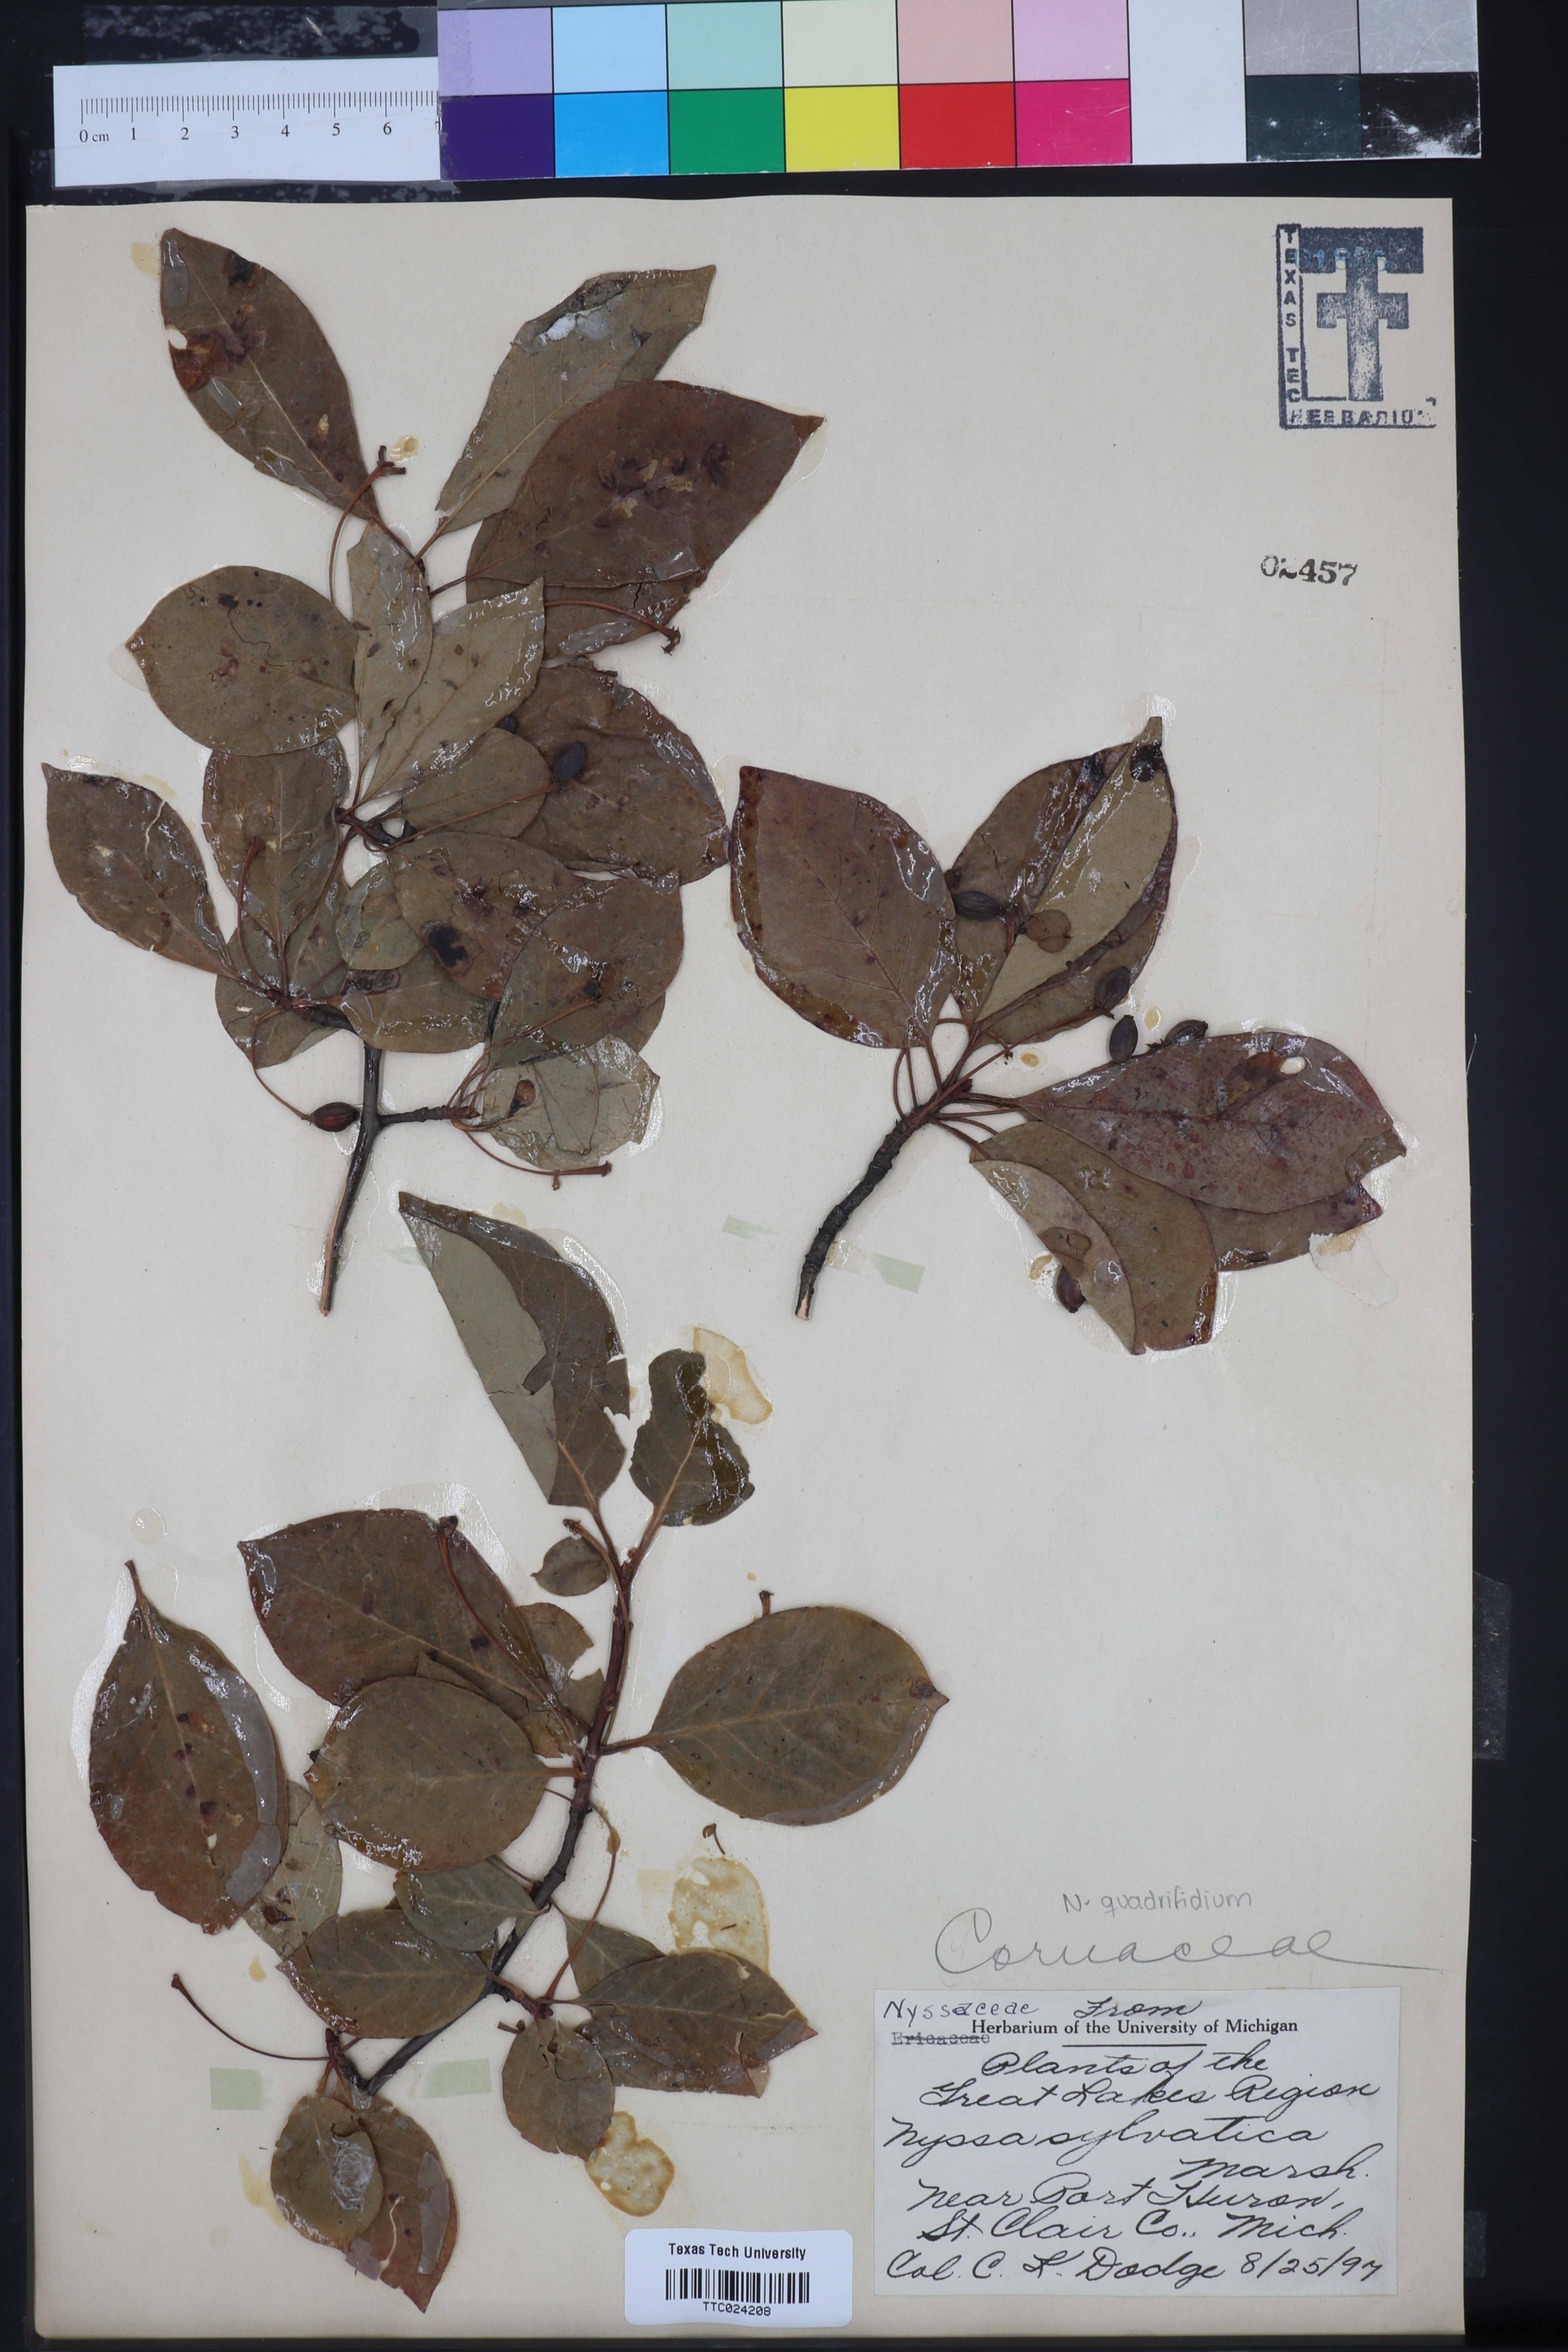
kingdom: Plantae
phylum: Tracheophyta
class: Magnoliopsida
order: Cornales
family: Nyssaceae
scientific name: Nyssaceae
